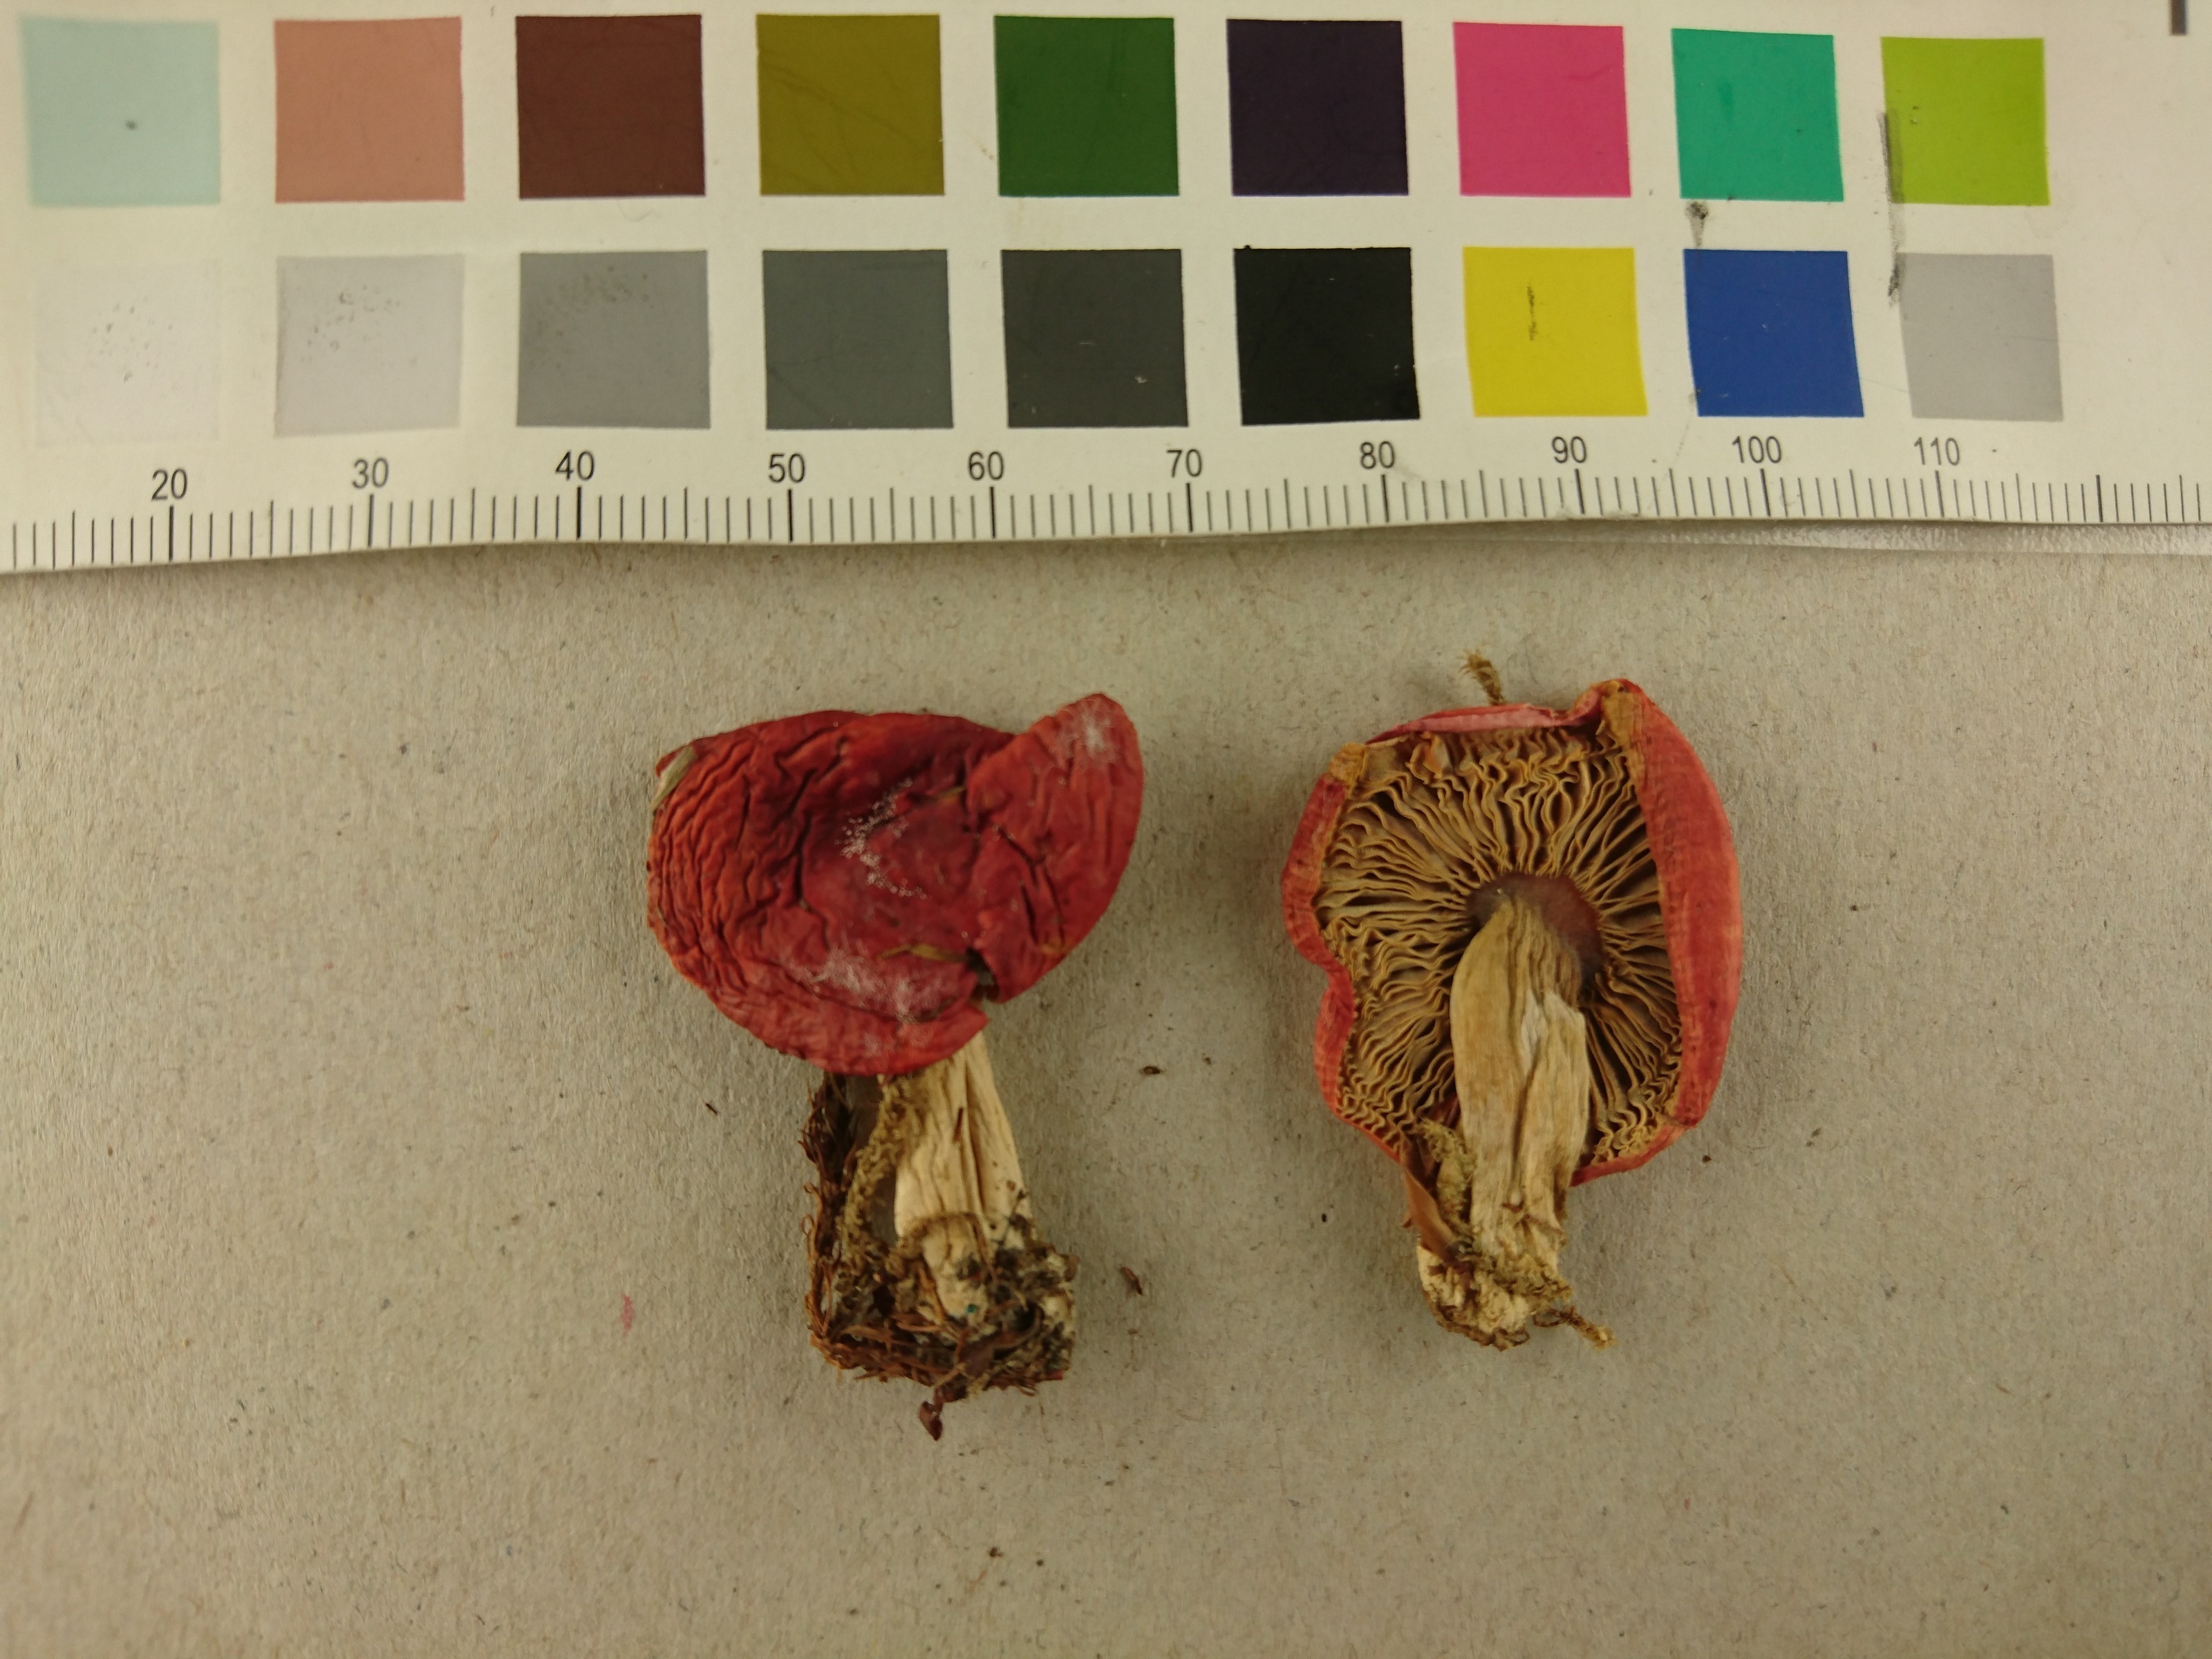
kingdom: Fungi
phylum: Basidiomycota
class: Agaricomycetes
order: Russulales
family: Russulaceae
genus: Russula
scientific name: Russula nobilis
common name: Beechwood sickener
